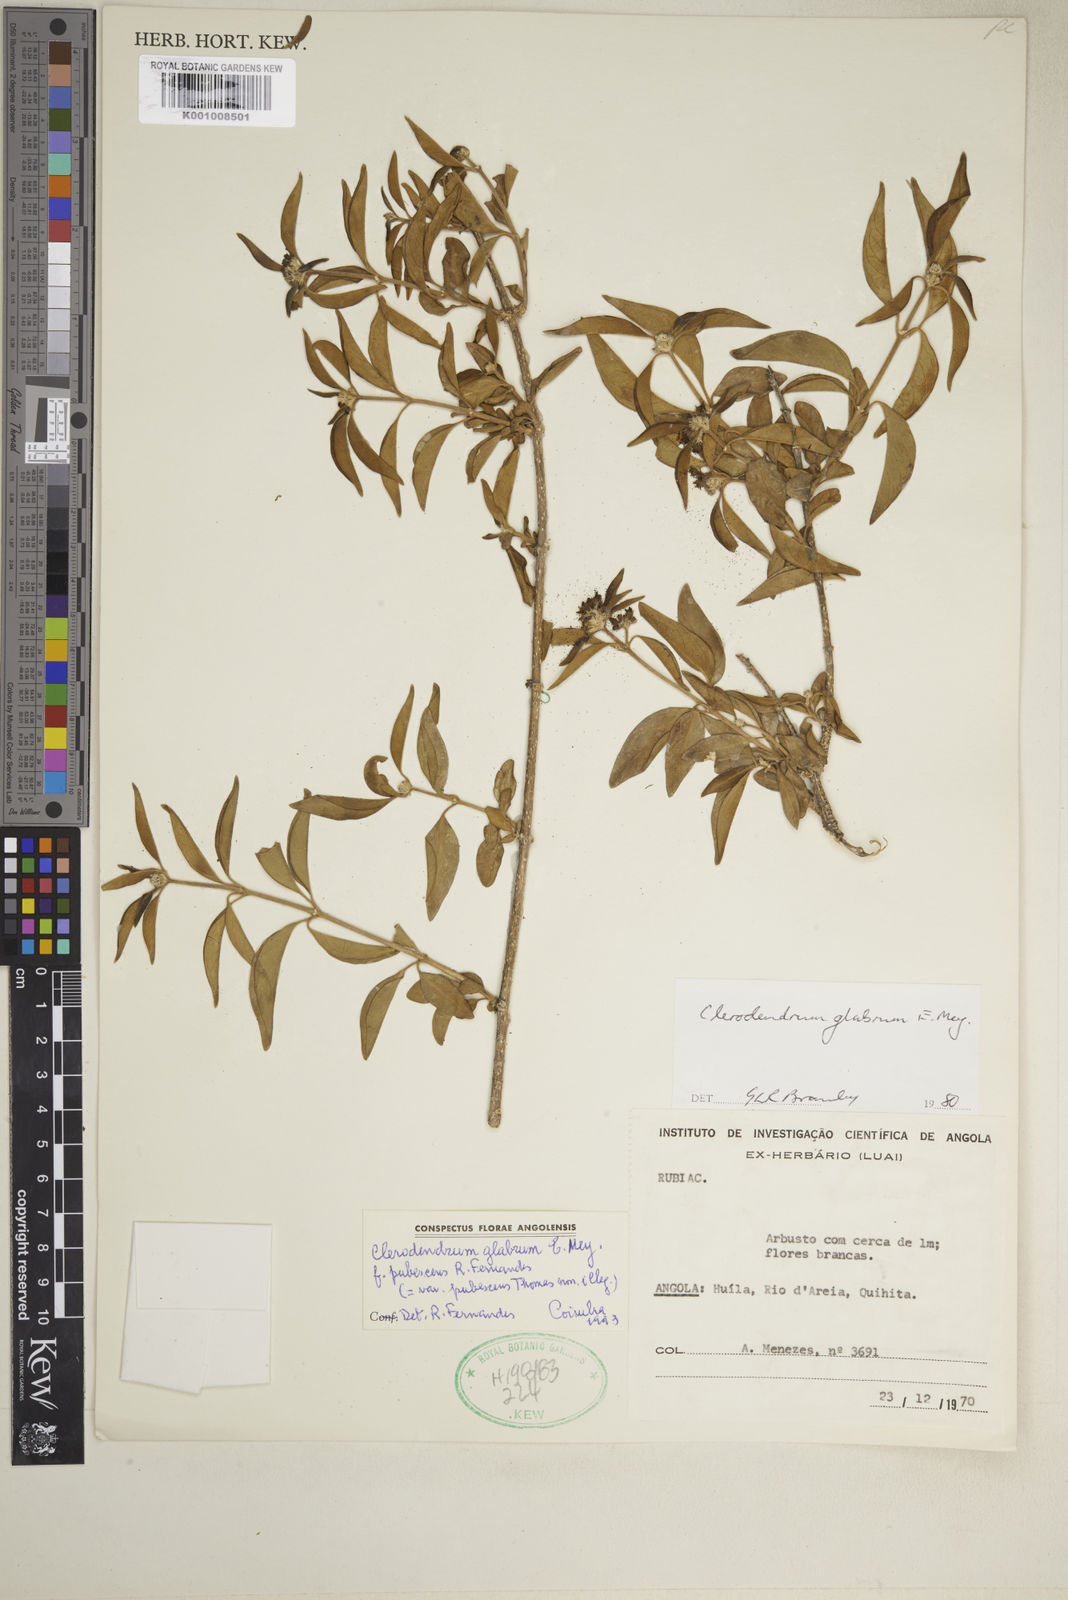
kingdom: Plantae
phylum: Tracheophyta
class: Magnoliopsida
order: Lamiales
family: Lamiaceae
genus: Volkameria
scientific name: Volkameria glabra
